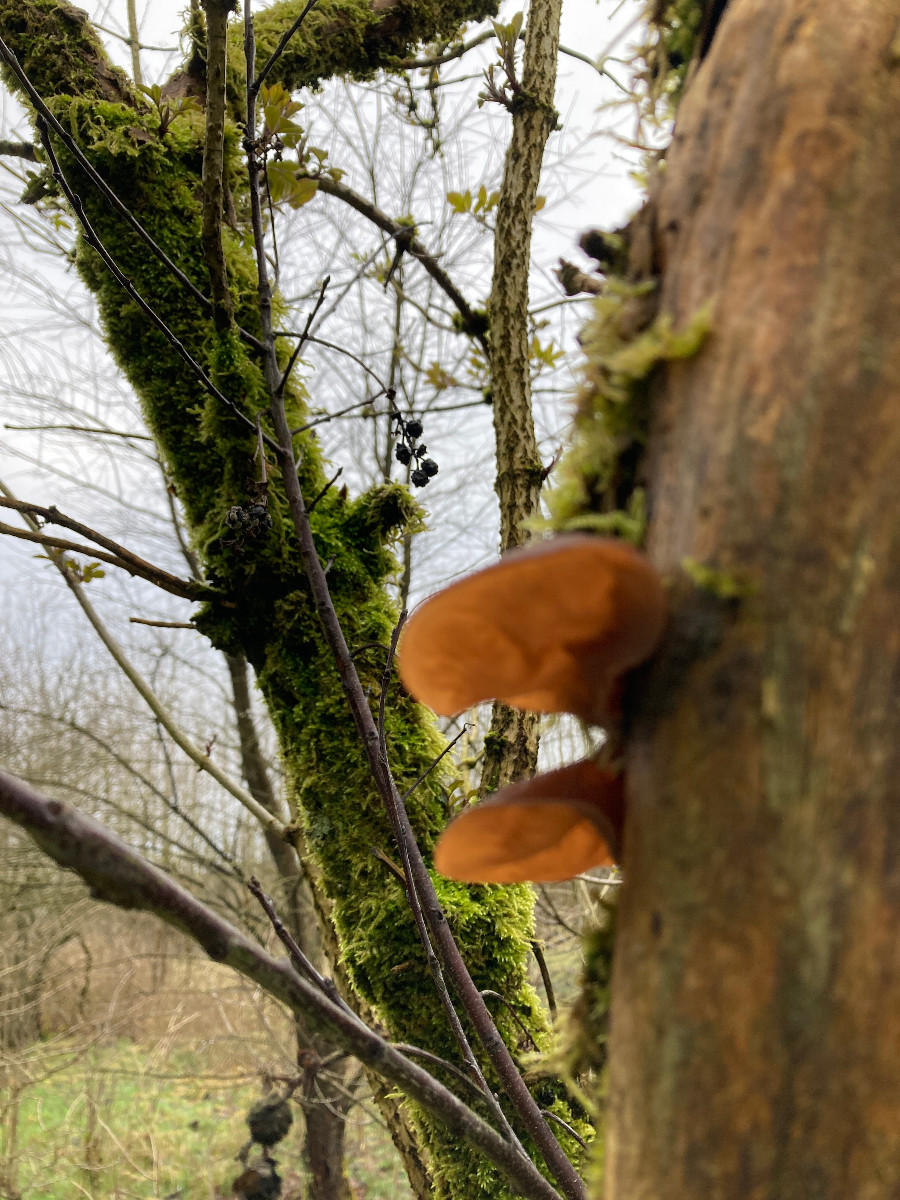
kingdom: Fungi
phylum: Basidiomycota
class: Agaricomycetes
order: Auriculariales
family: Auriculariaceae
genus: Auricularia
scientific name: Auricularia auricula-judae
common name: almindelig judasøre
